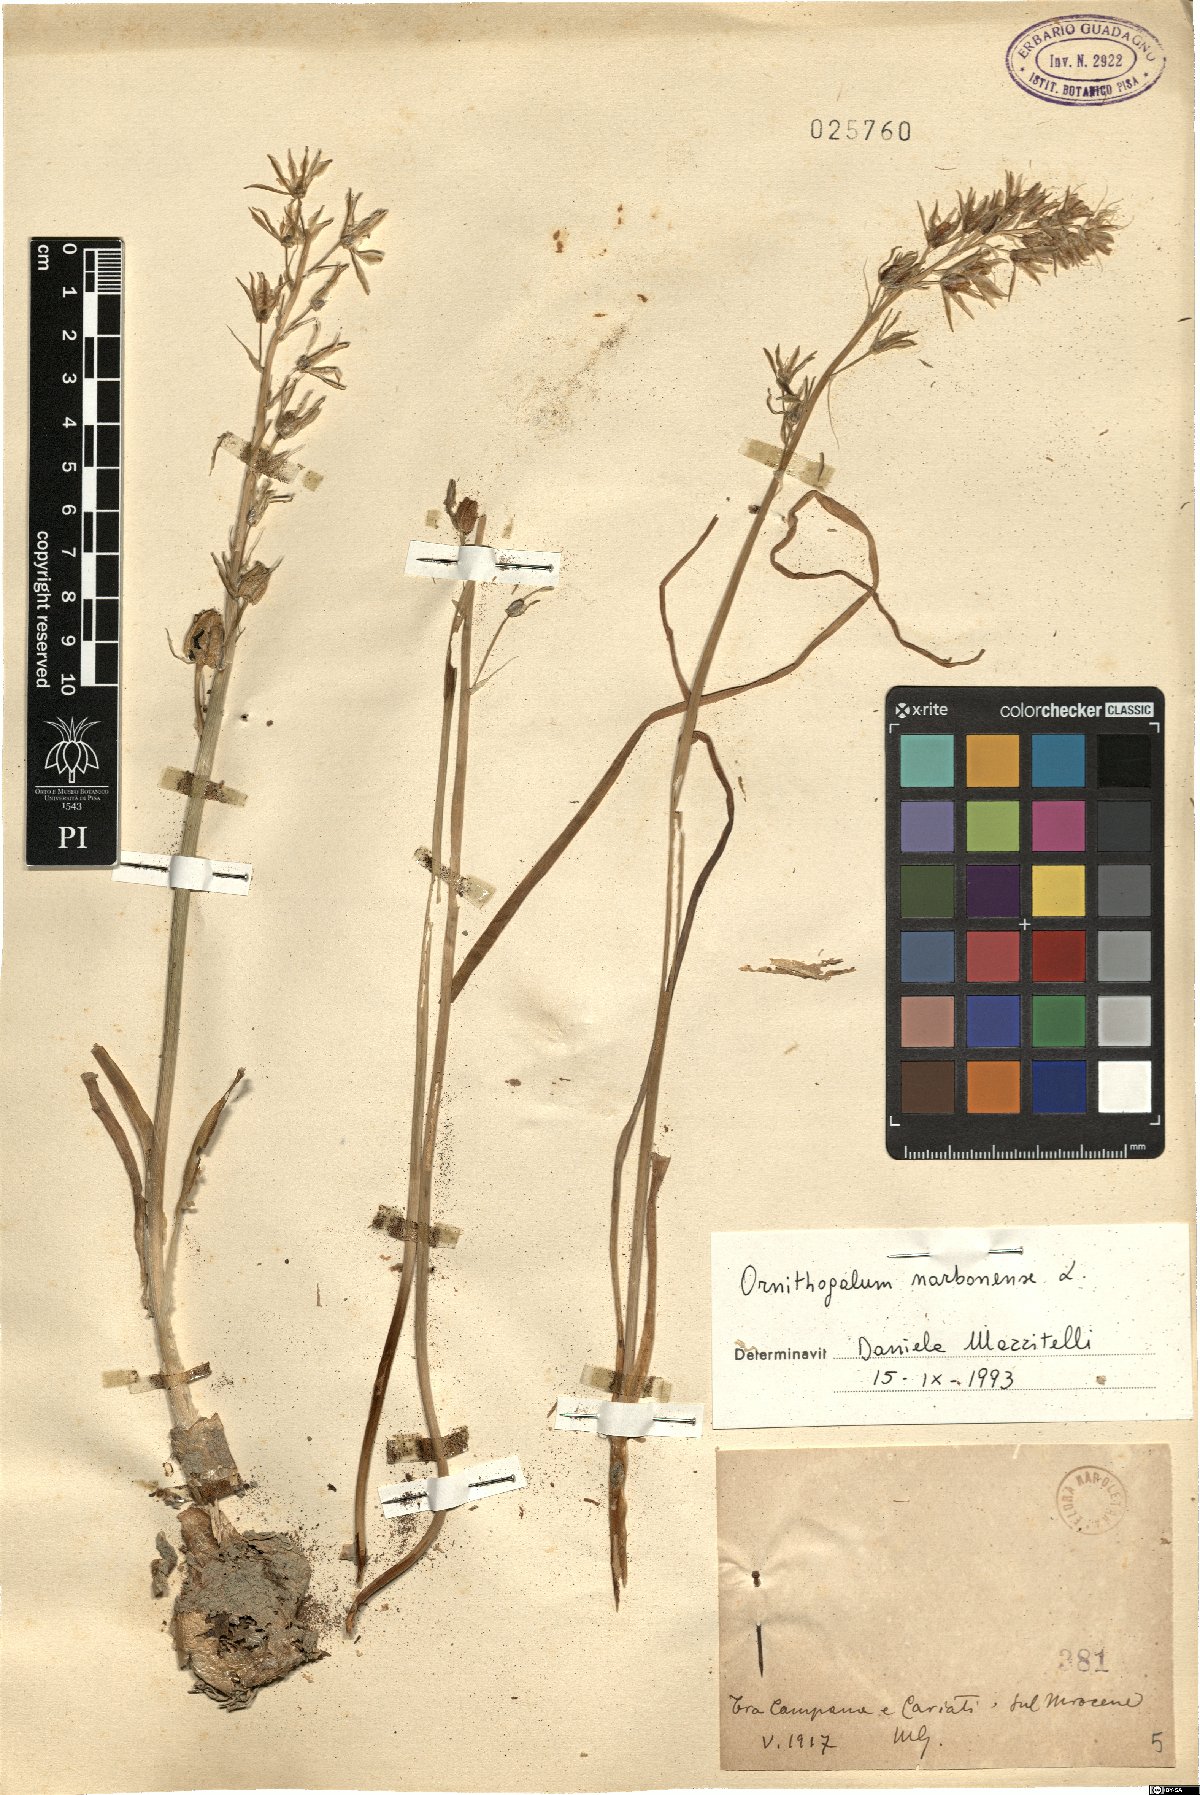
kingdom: Plantae
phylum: Tracheophyta
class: Liliopsida
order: Asparagales
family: Asparagaceae
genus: Ornithogalum
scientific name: Ornithogalum narbonense
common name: Bath-asparagus
